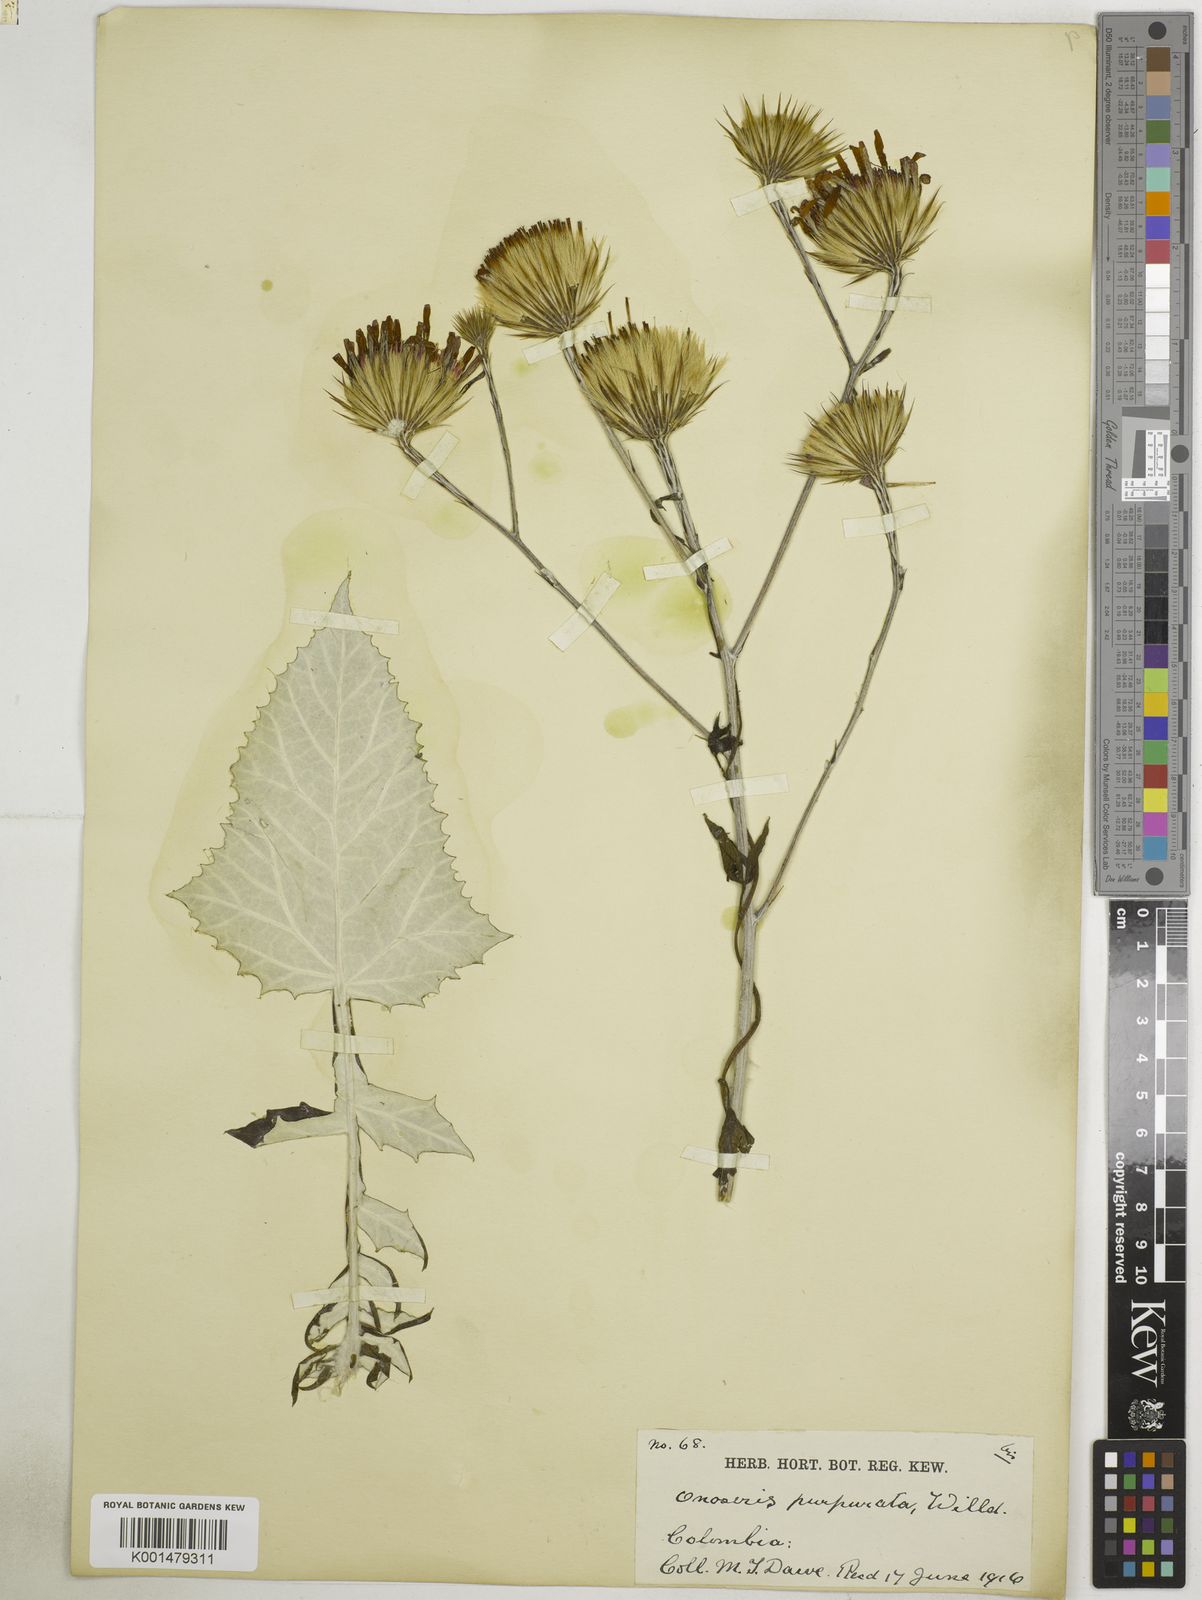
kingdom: Plantae
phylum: Tracheophyta
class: Magnoliopsida
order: Asterales
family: Asteraceae
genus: Onoseris
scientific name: Onoseris purpurata
